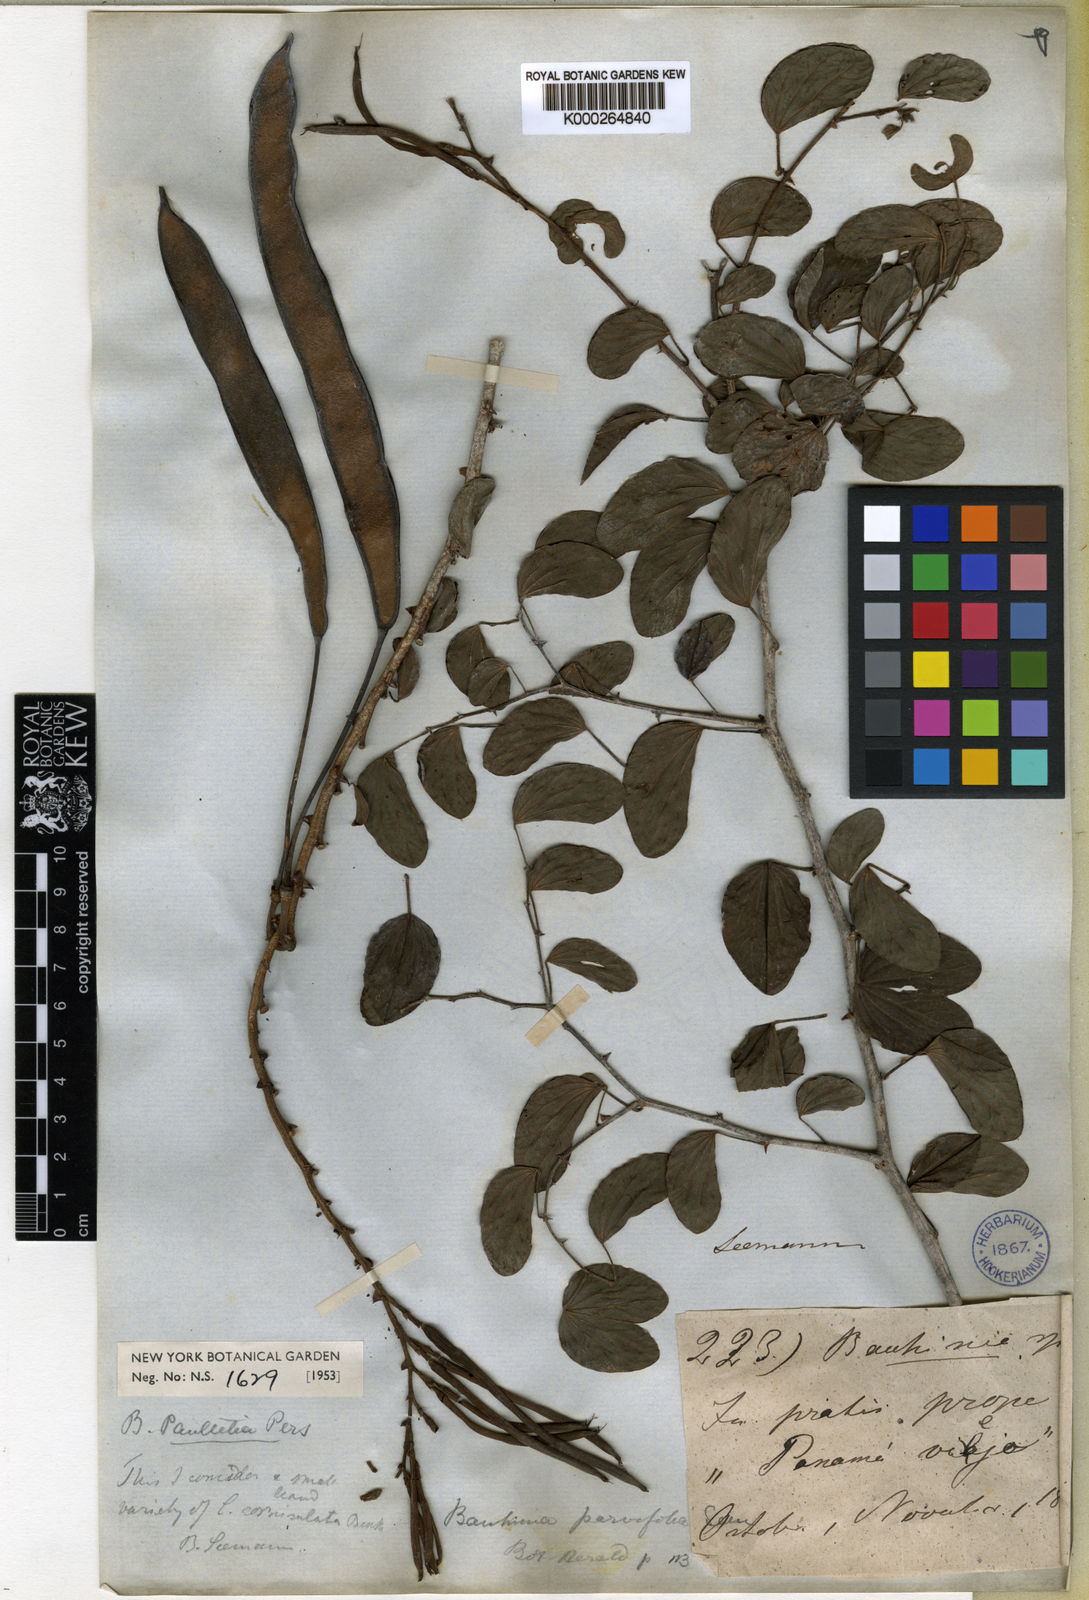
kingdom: Plantae
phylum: Tracheophyta
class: Magnoliopsida
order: Fabales
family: Fabaceae
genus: Bauhinia
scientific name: Bauhinia pauletia
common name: Railway-fence bauhinia
